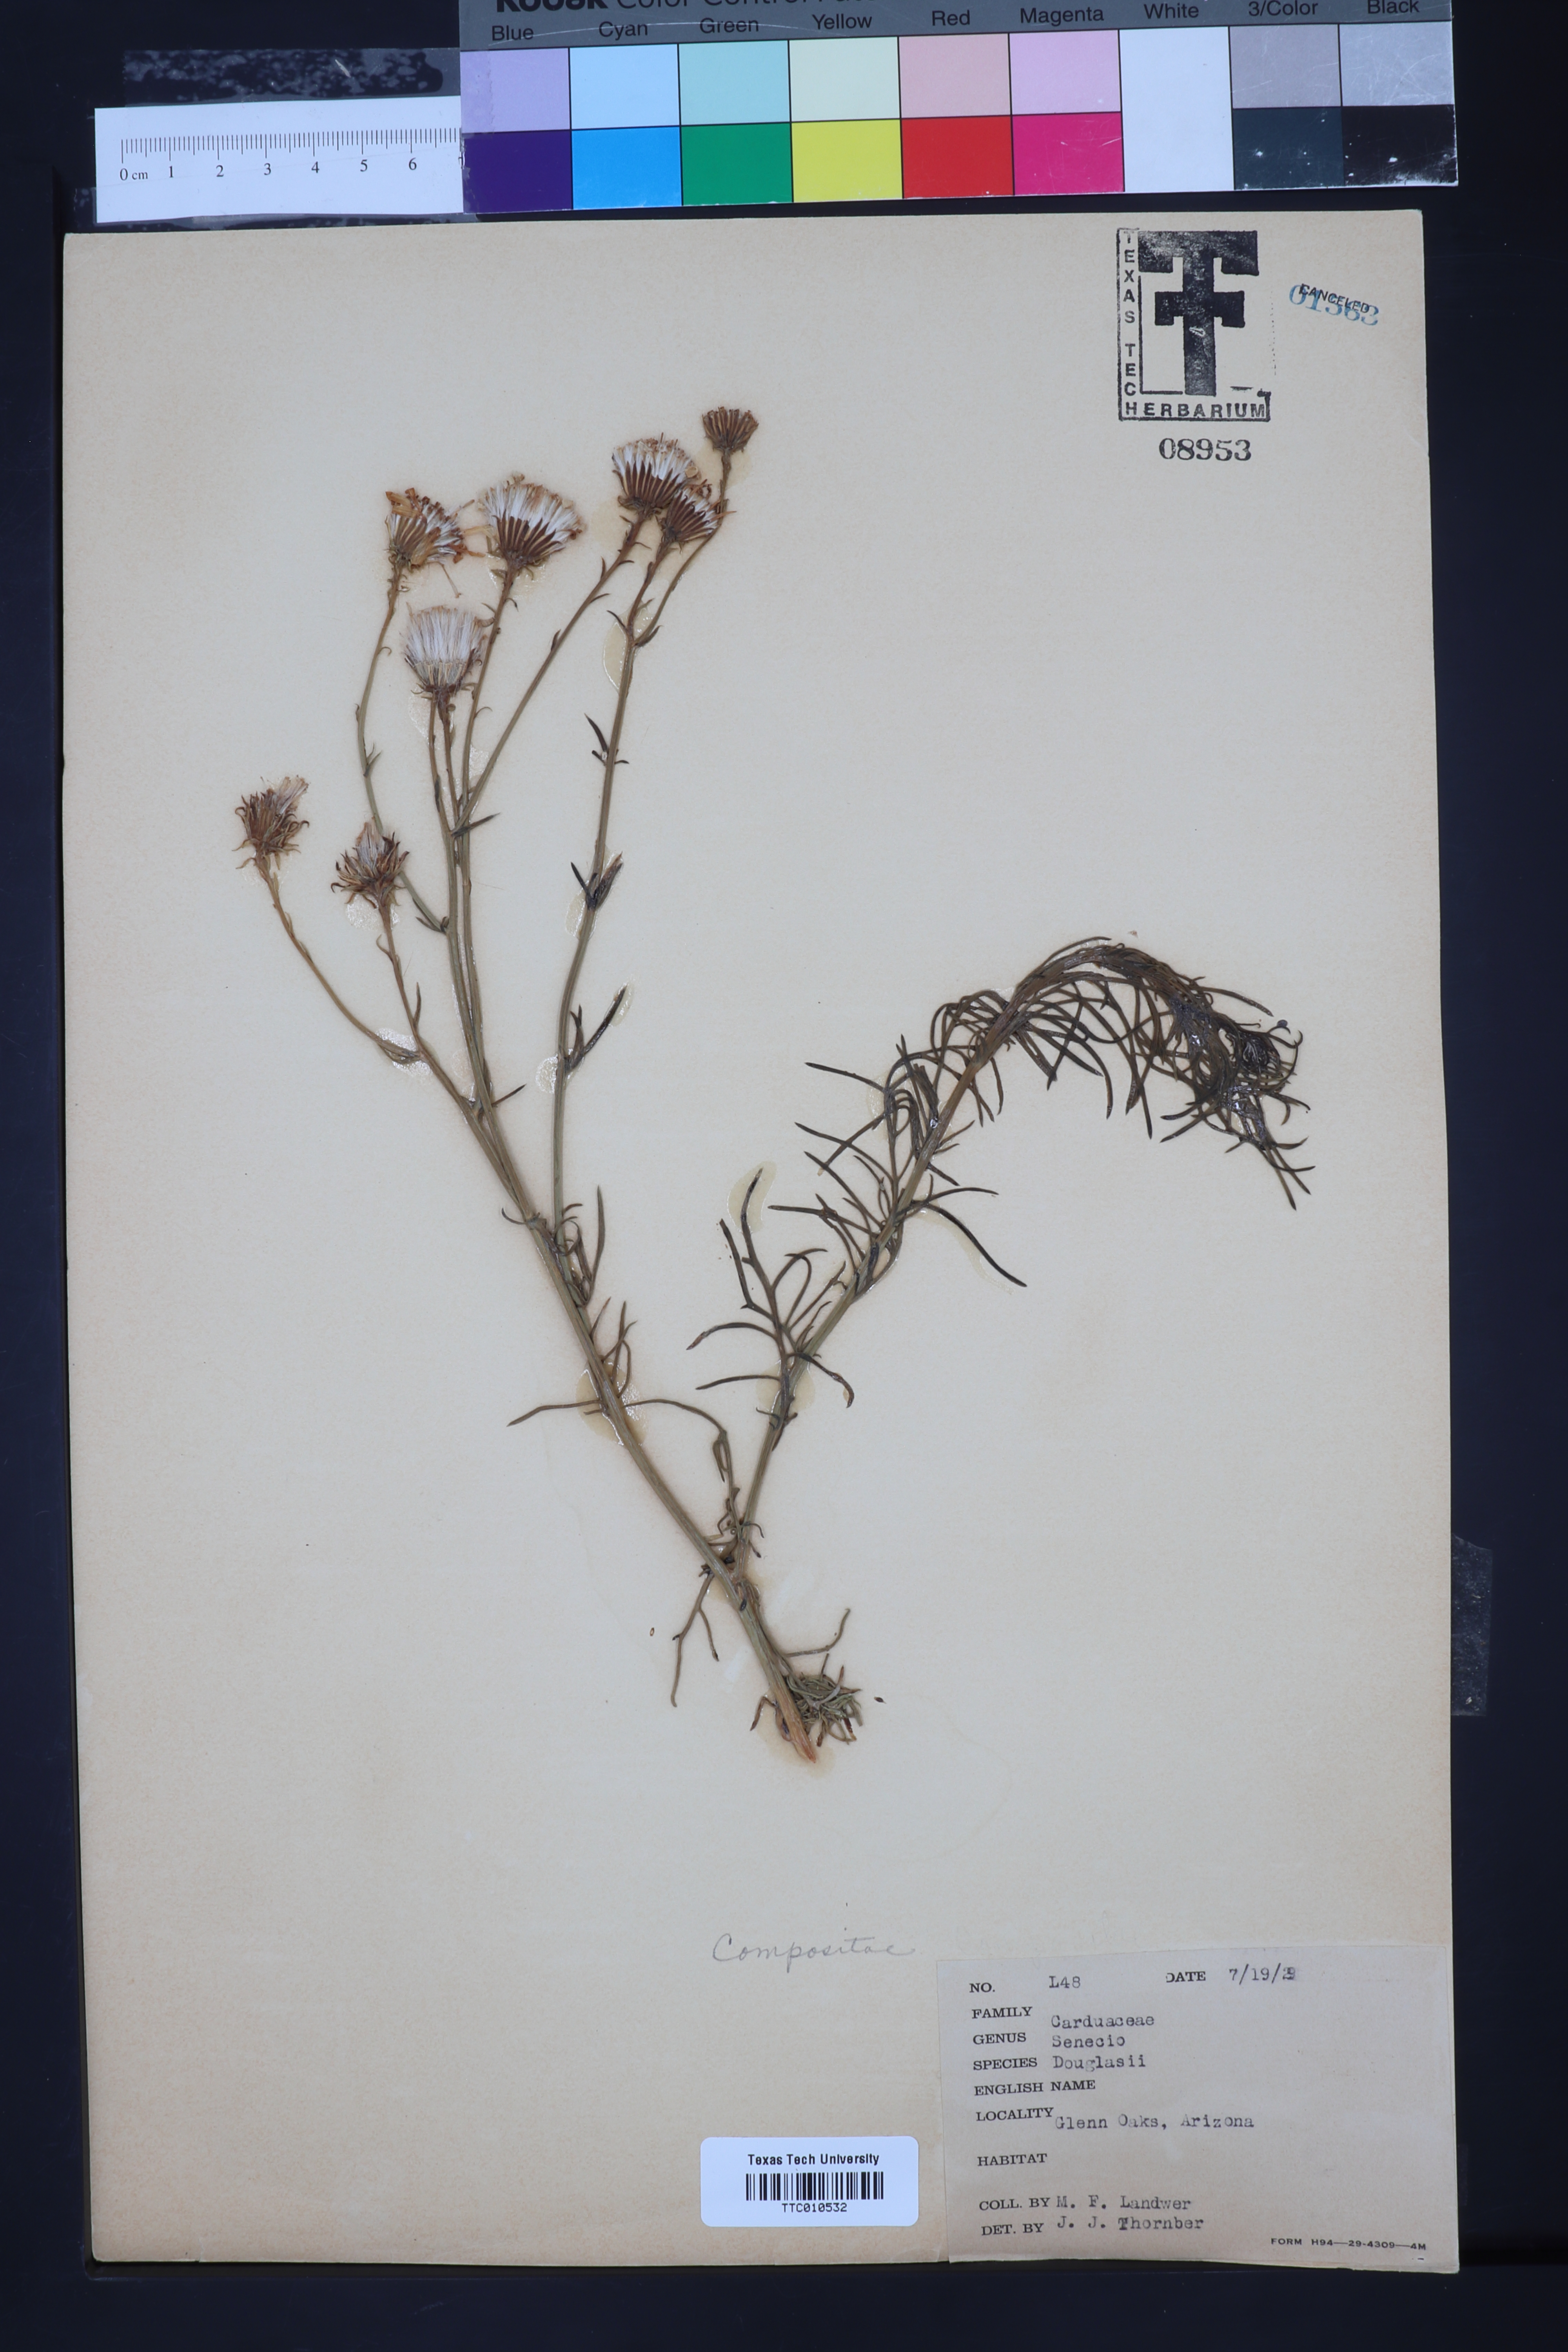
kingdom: Plantae
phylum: Tracheophyta
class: Magnoliopsida
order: Asterales
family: Asteraceae
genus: Senecio
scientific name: Senecio flaccidus
